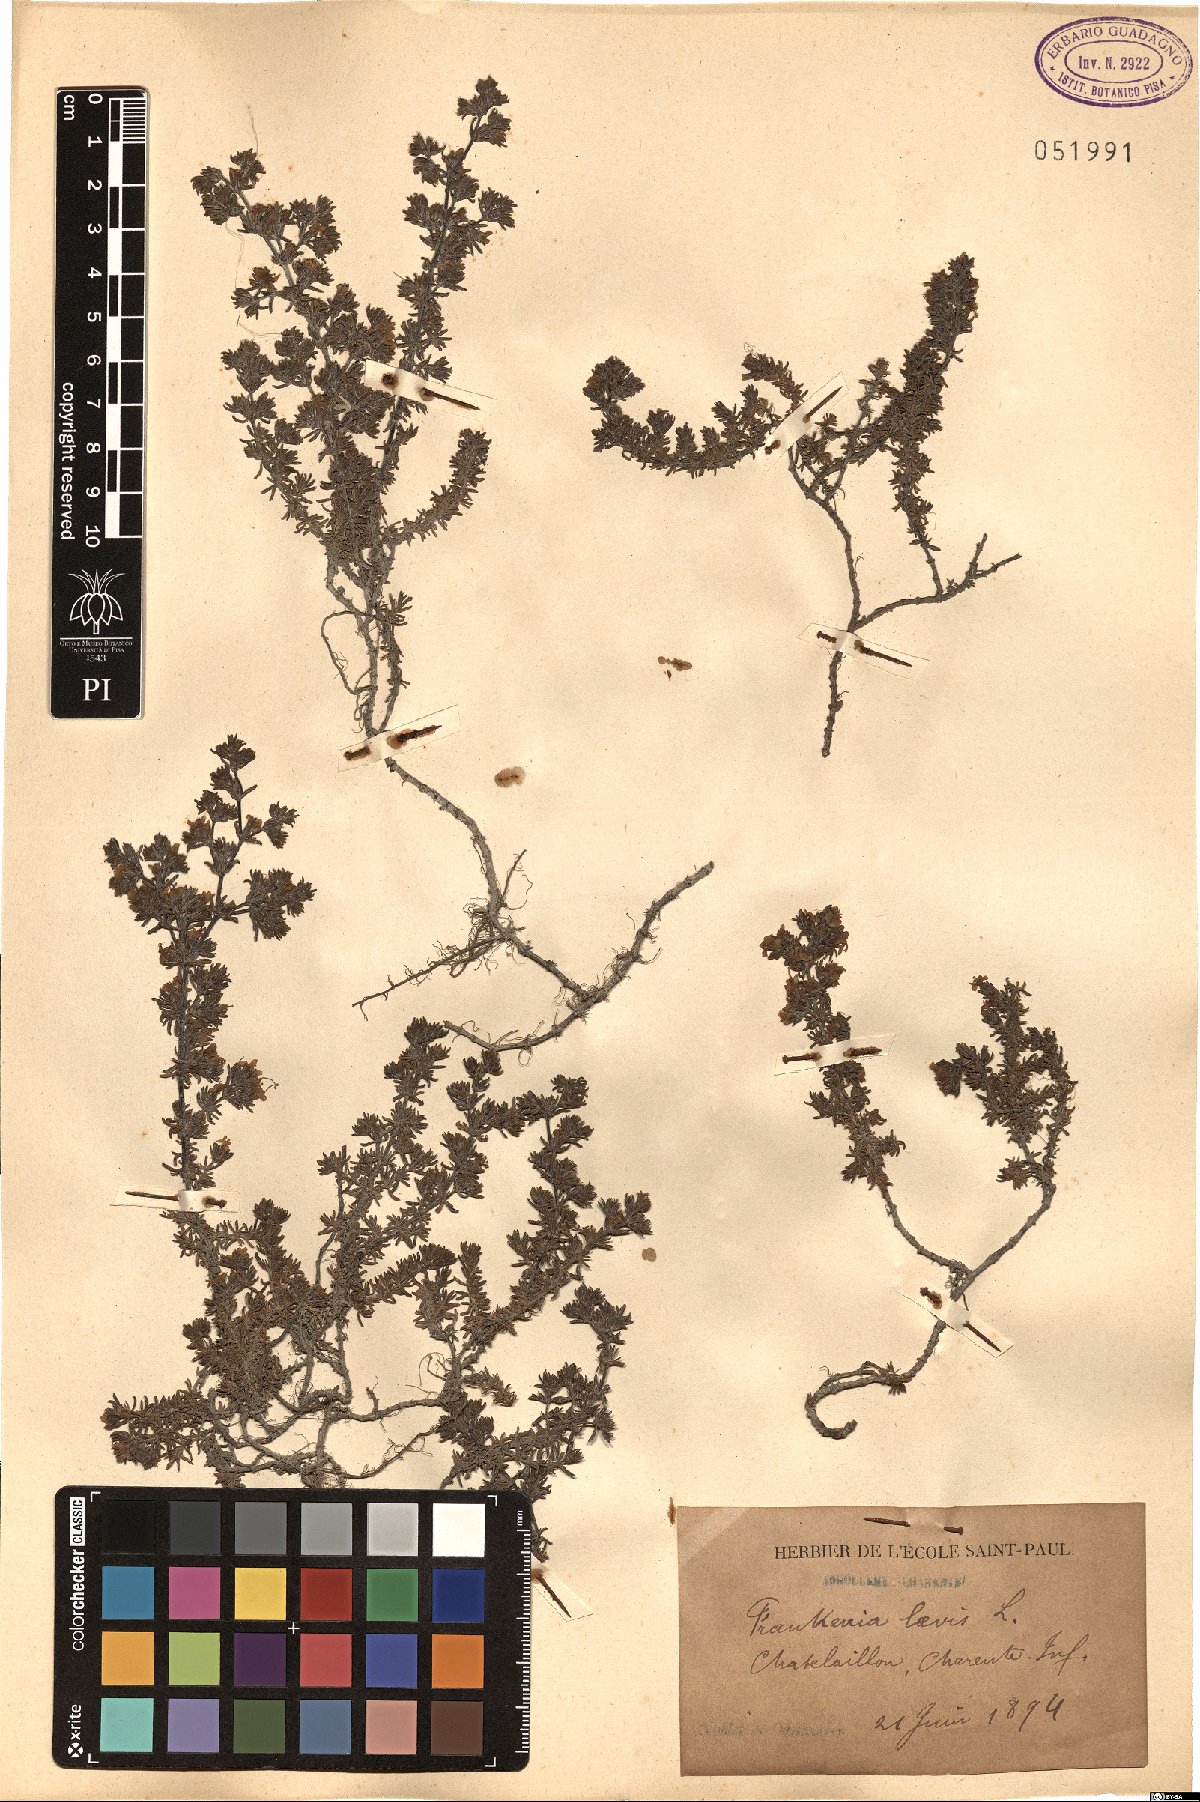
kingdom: Plantae
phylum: Tracheophyta
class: Magnoliopsida
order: Caryophyllales
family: Frankeniaceae
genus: Frankenia
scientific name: Frankenia laevis
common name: Sea-heath
